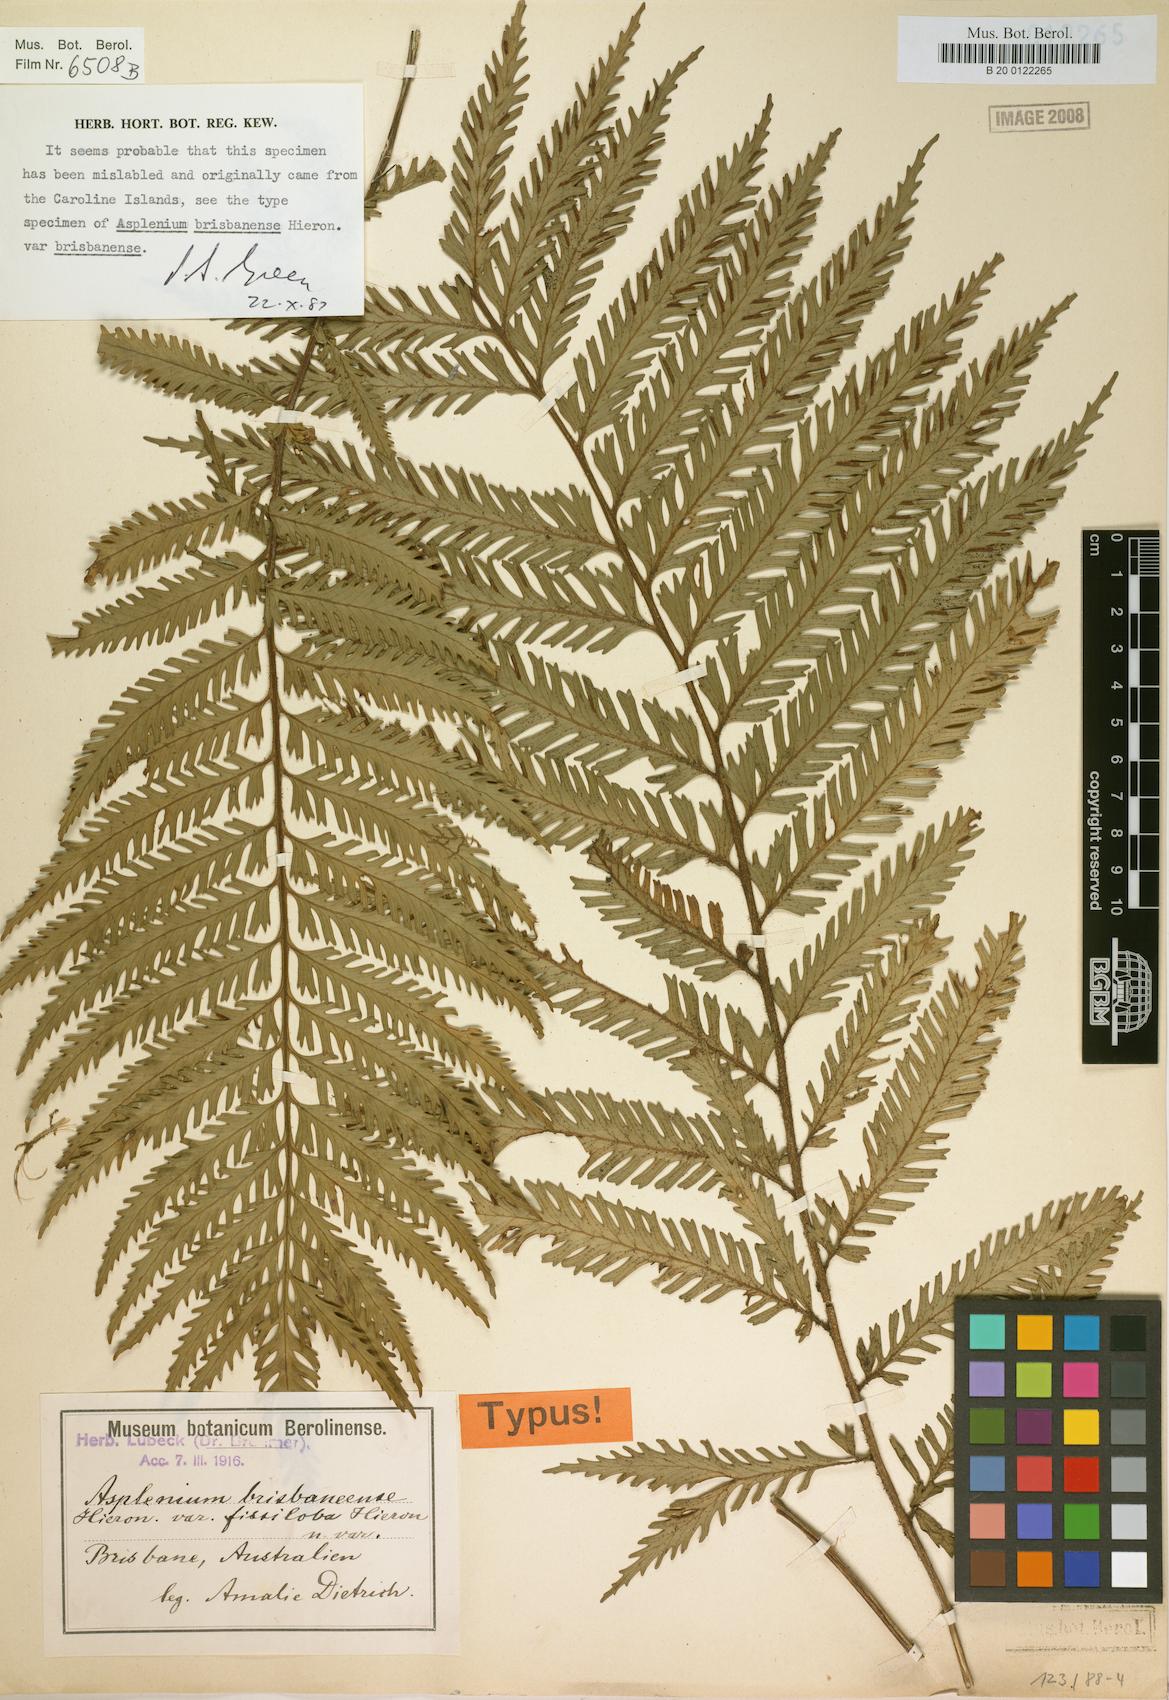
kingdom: Plantae
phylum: Tracheophyta
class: Polypodiopsida
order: Polypodiales
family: Aspleniaceae
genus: Asplenium
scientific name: Asplenium vulcanicum
